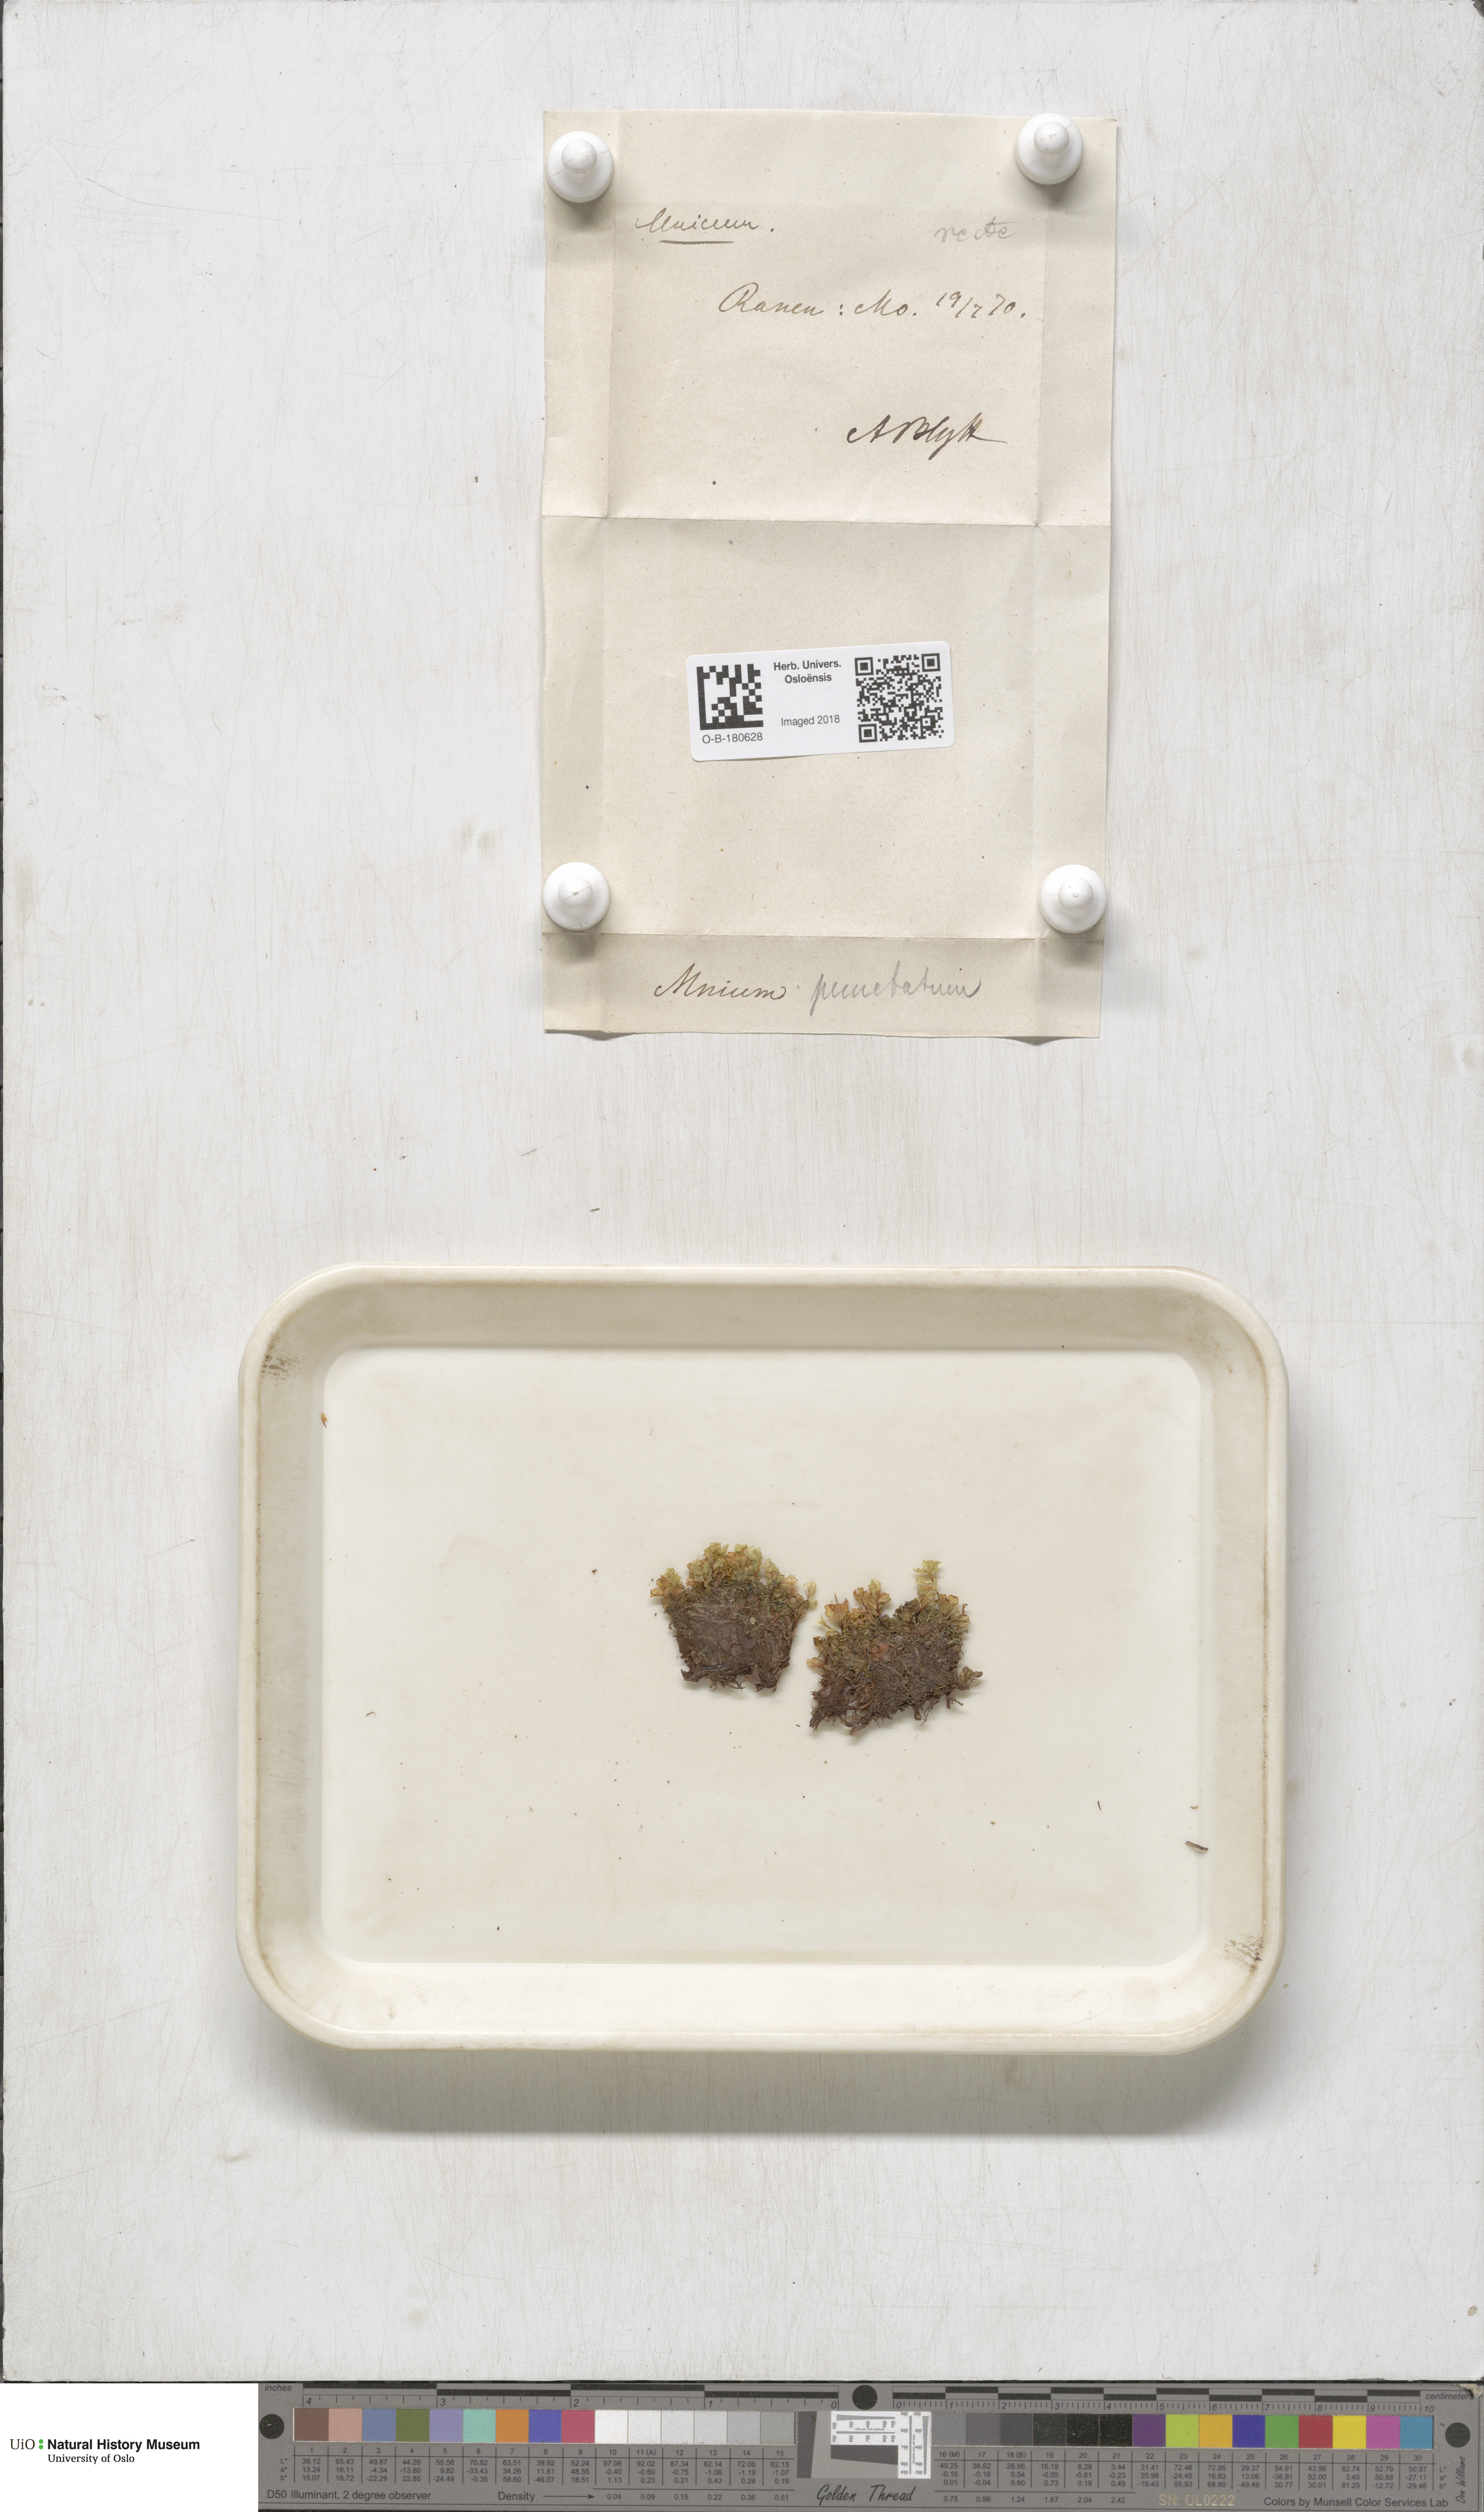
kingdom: Plantae
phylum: Bryophyta
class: Bryopsida
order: Bryales
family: Mniaceae
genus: Rhizomnium
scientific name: Rhizomnium punctatum
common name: Dotted leafy moss
